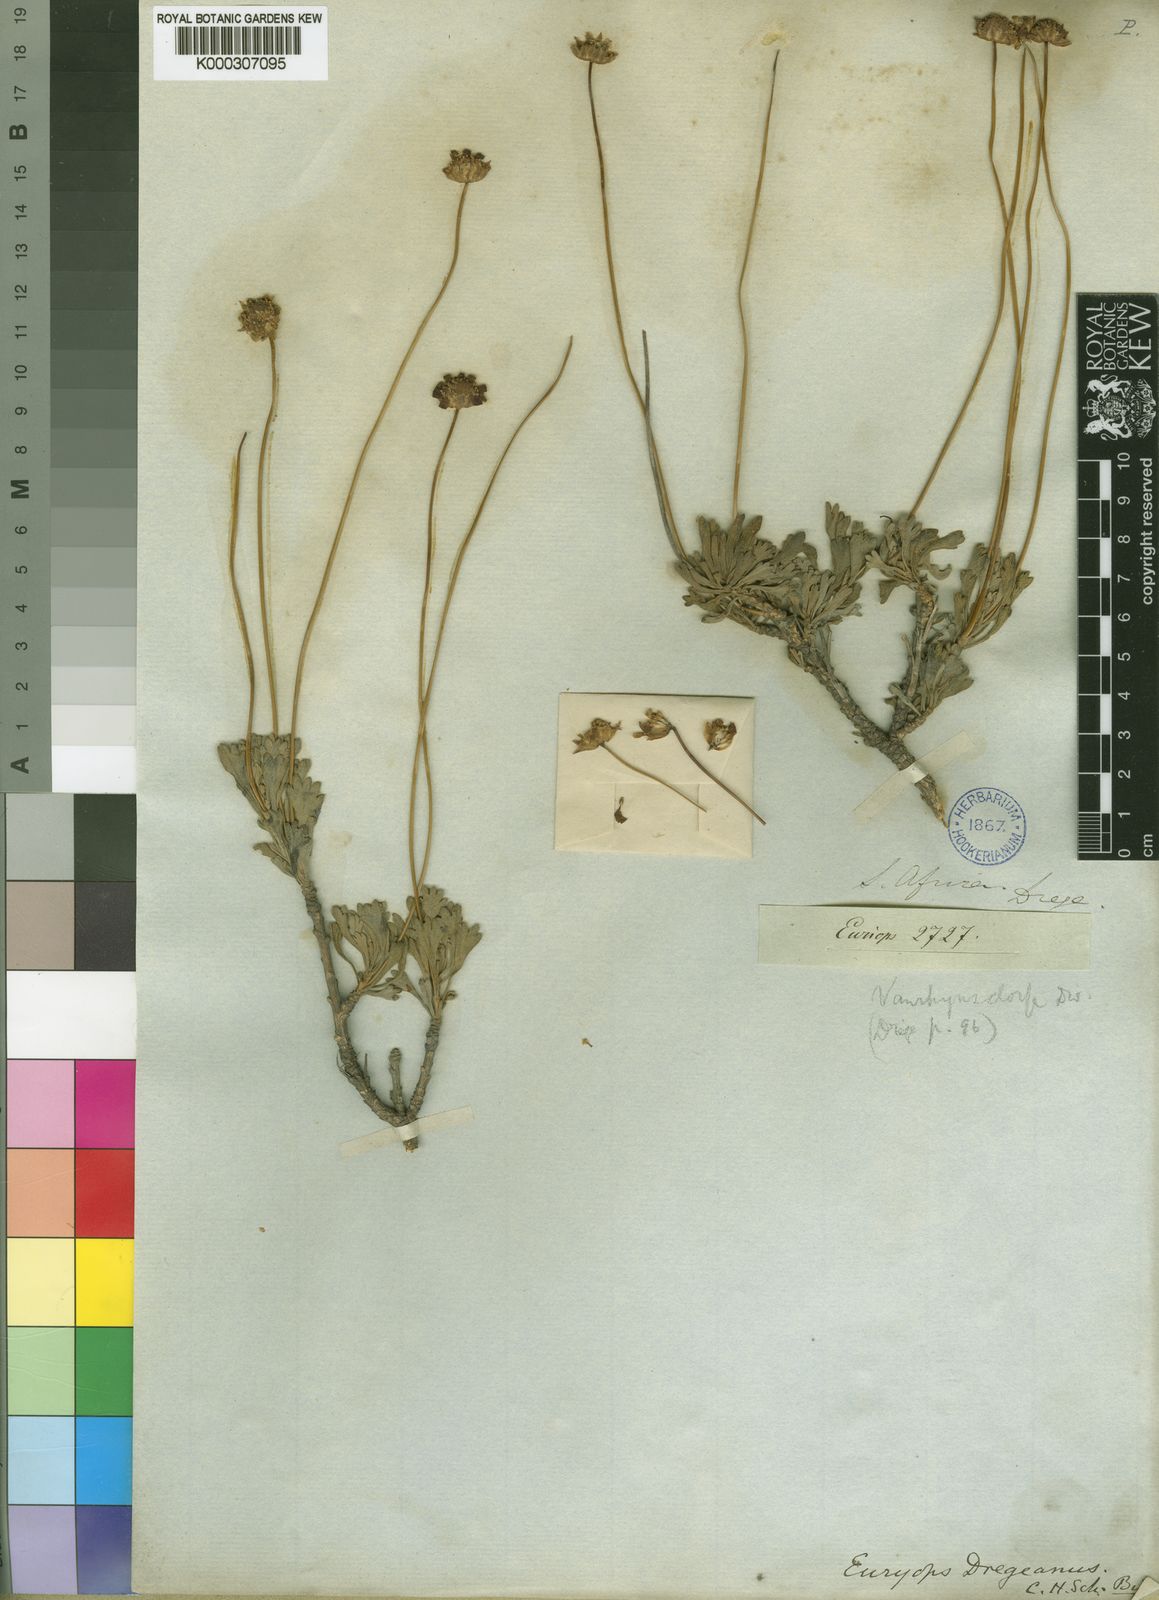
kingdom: Plantae
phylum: Tracheophyta
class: Magnoliopsida
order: Asterales
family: Asteraceae
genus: Euryops
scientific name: Euryops dregeanus
